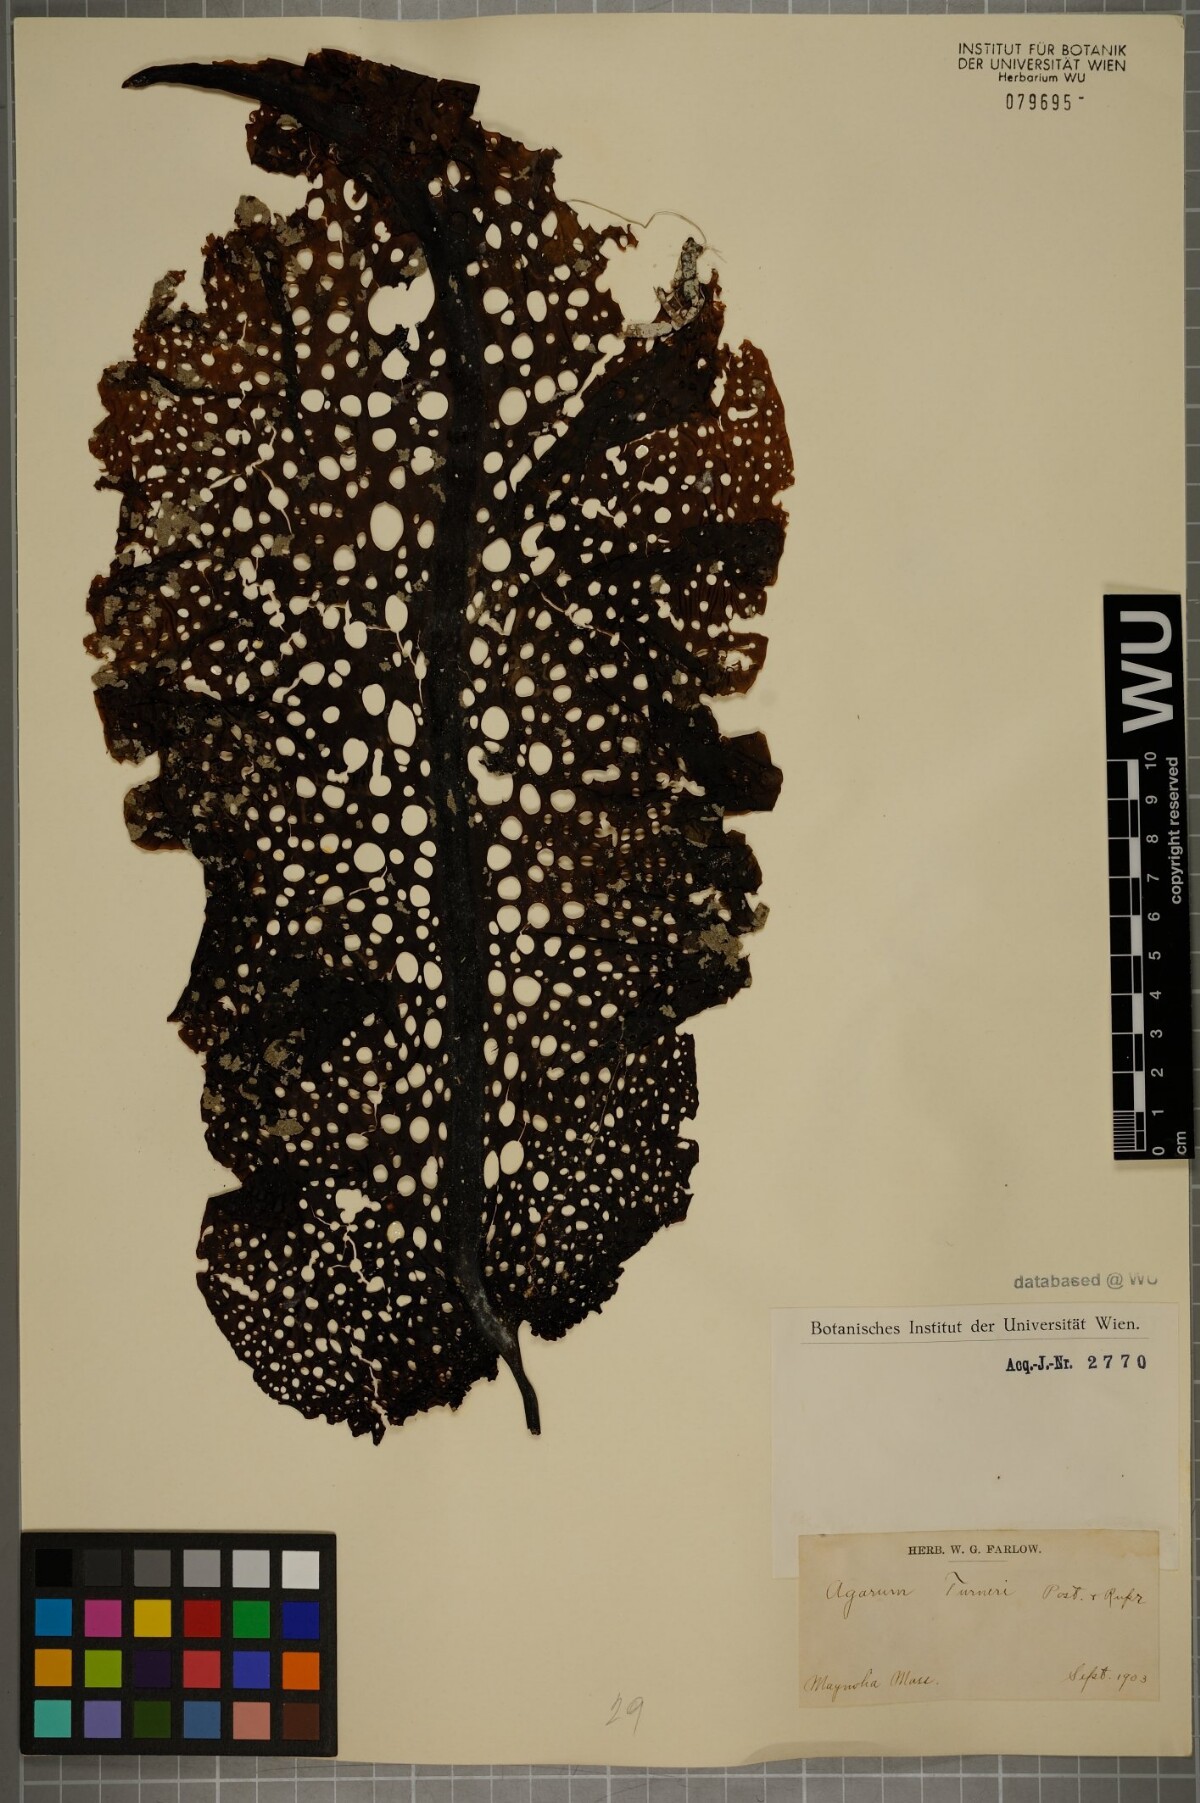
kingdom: Chromista
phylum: Ochrophyta
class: Phaeophyceae
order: Laminariales
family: Costariaceae
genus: Agarum
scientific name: Agarum turneri
